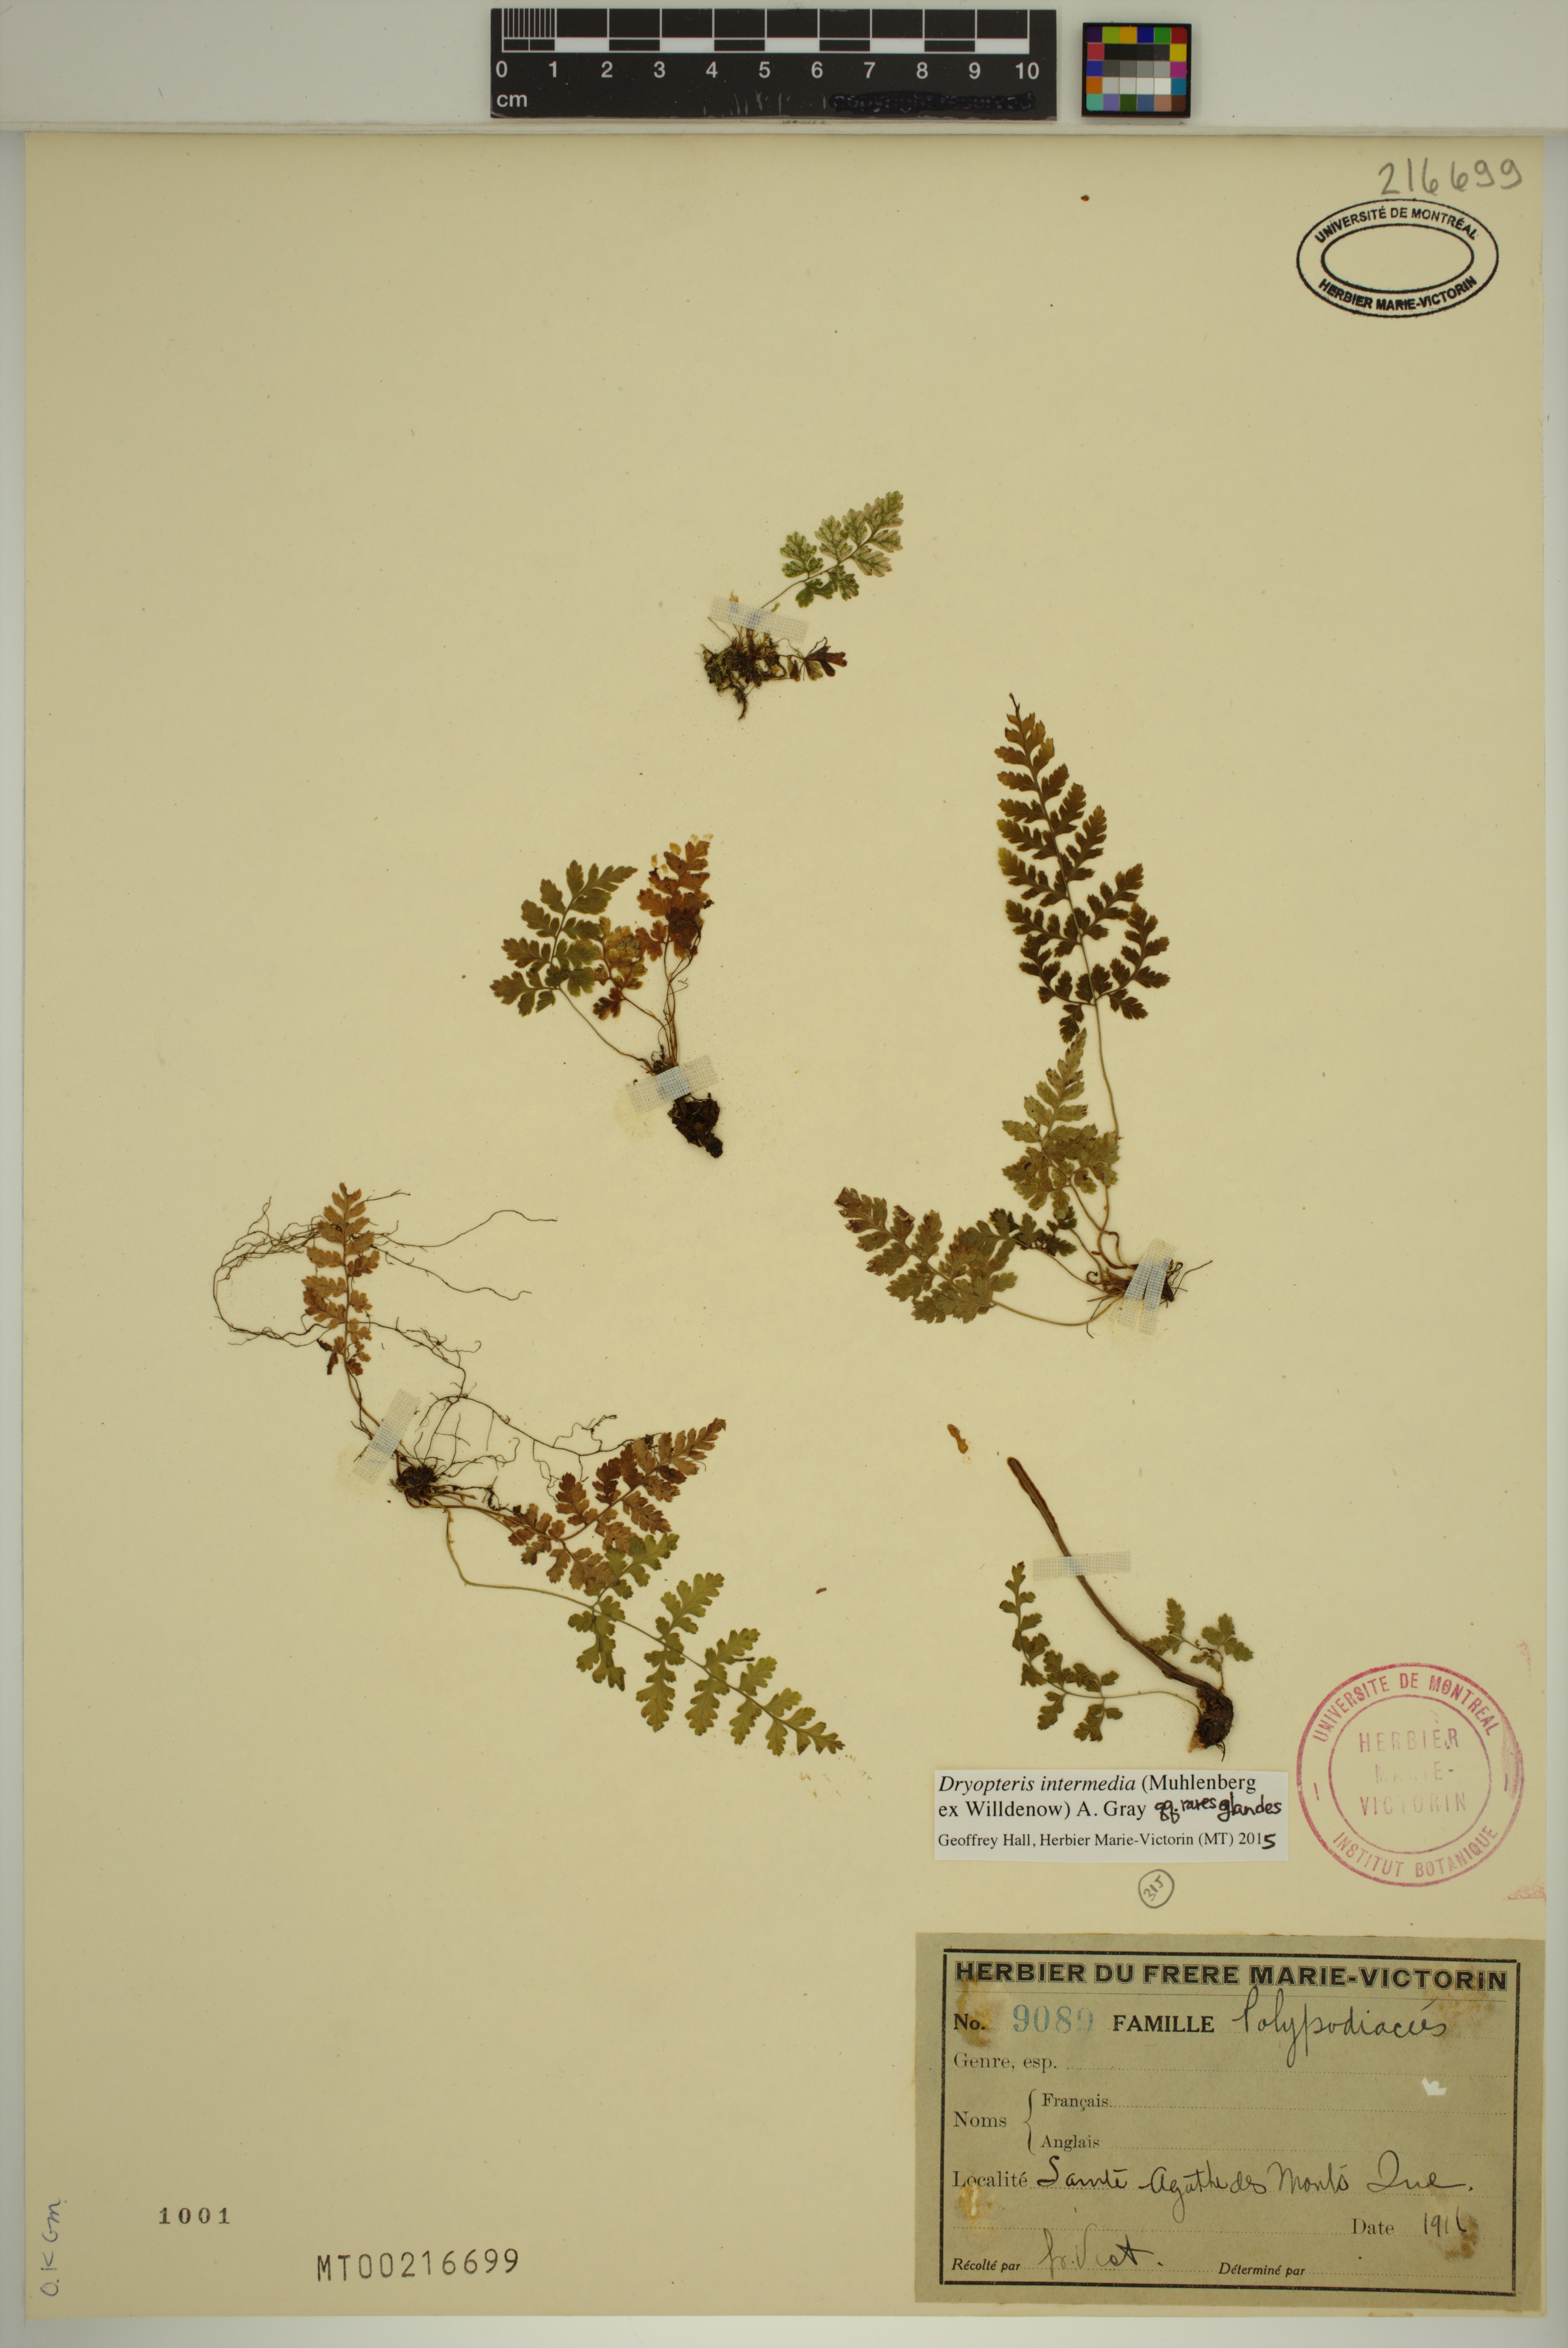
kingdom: Plantae
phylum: Tracheophyta
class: Polypodiopsida
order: Polypodiales
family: Dryopteridaceae
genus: Dryopteris
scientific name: Dryopteris intermedia
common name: Evergreen wood fern
